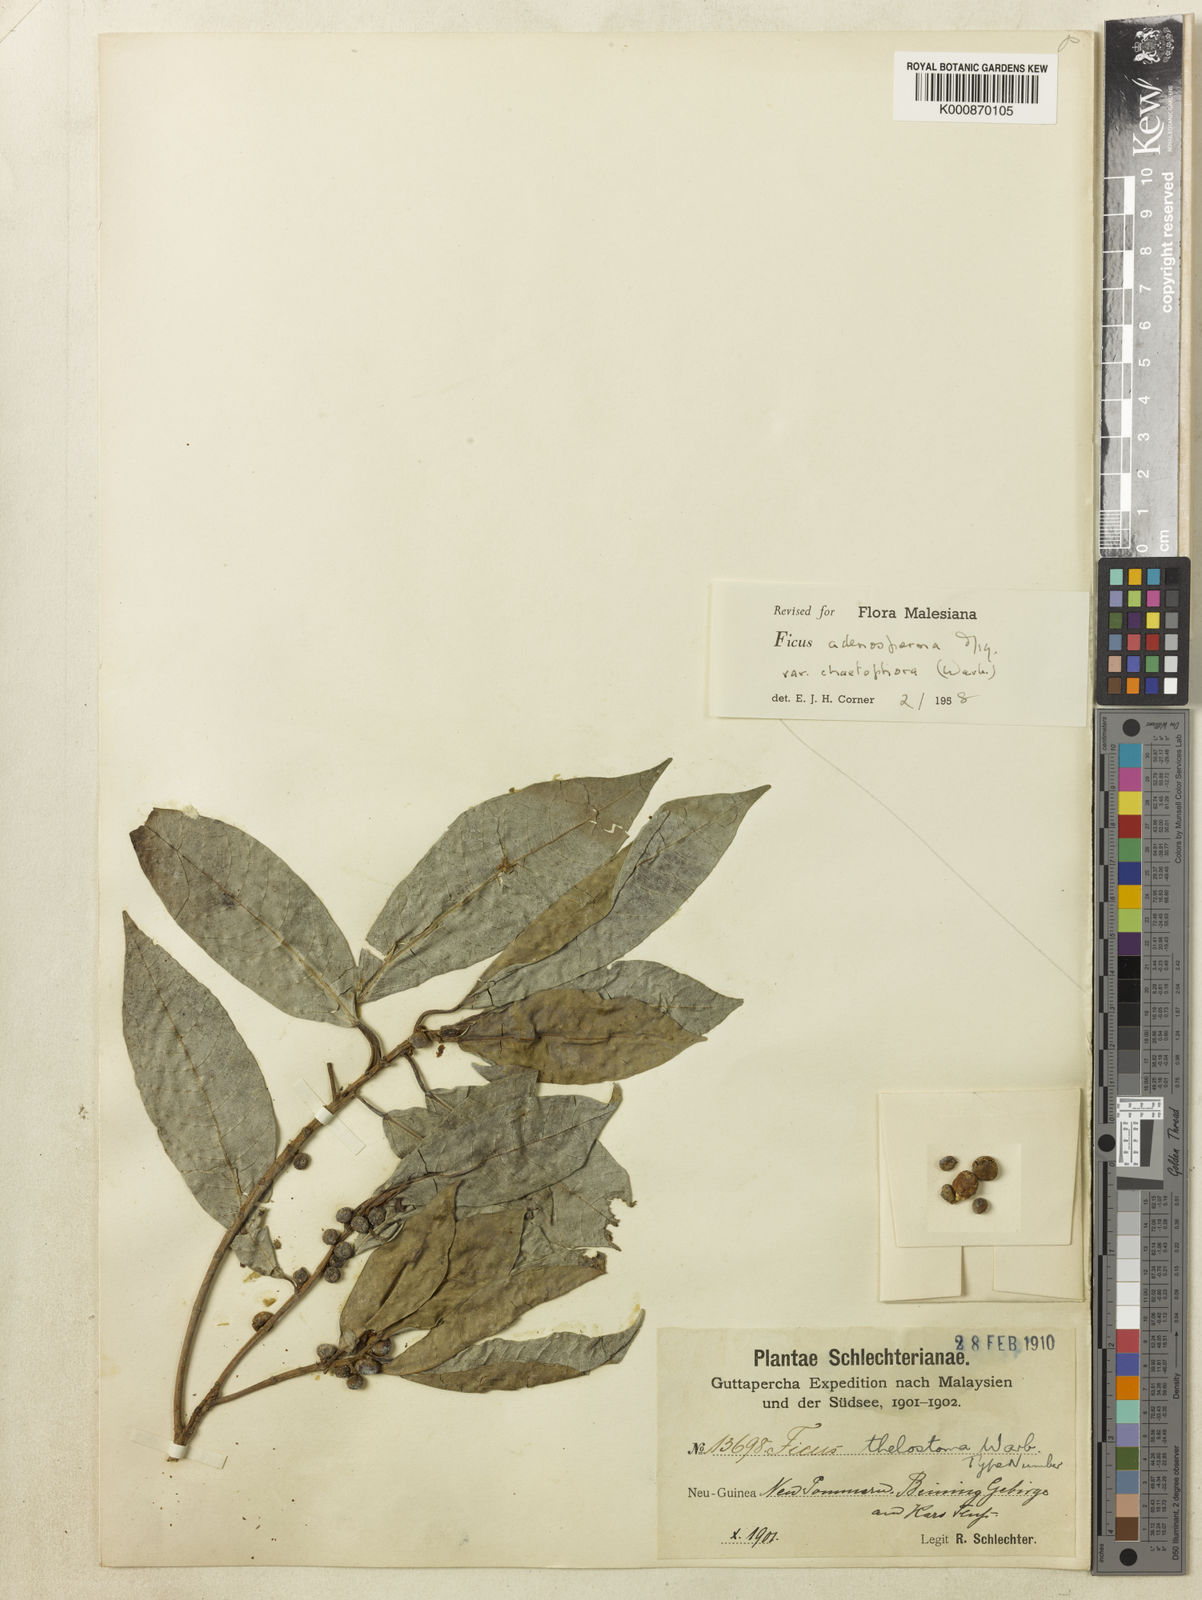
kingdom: Plantae
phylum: Tracheophyta
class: Magnoliopsida
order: Rosales
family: Moraceae
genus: Ficus
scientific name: Ficus adenosperma
